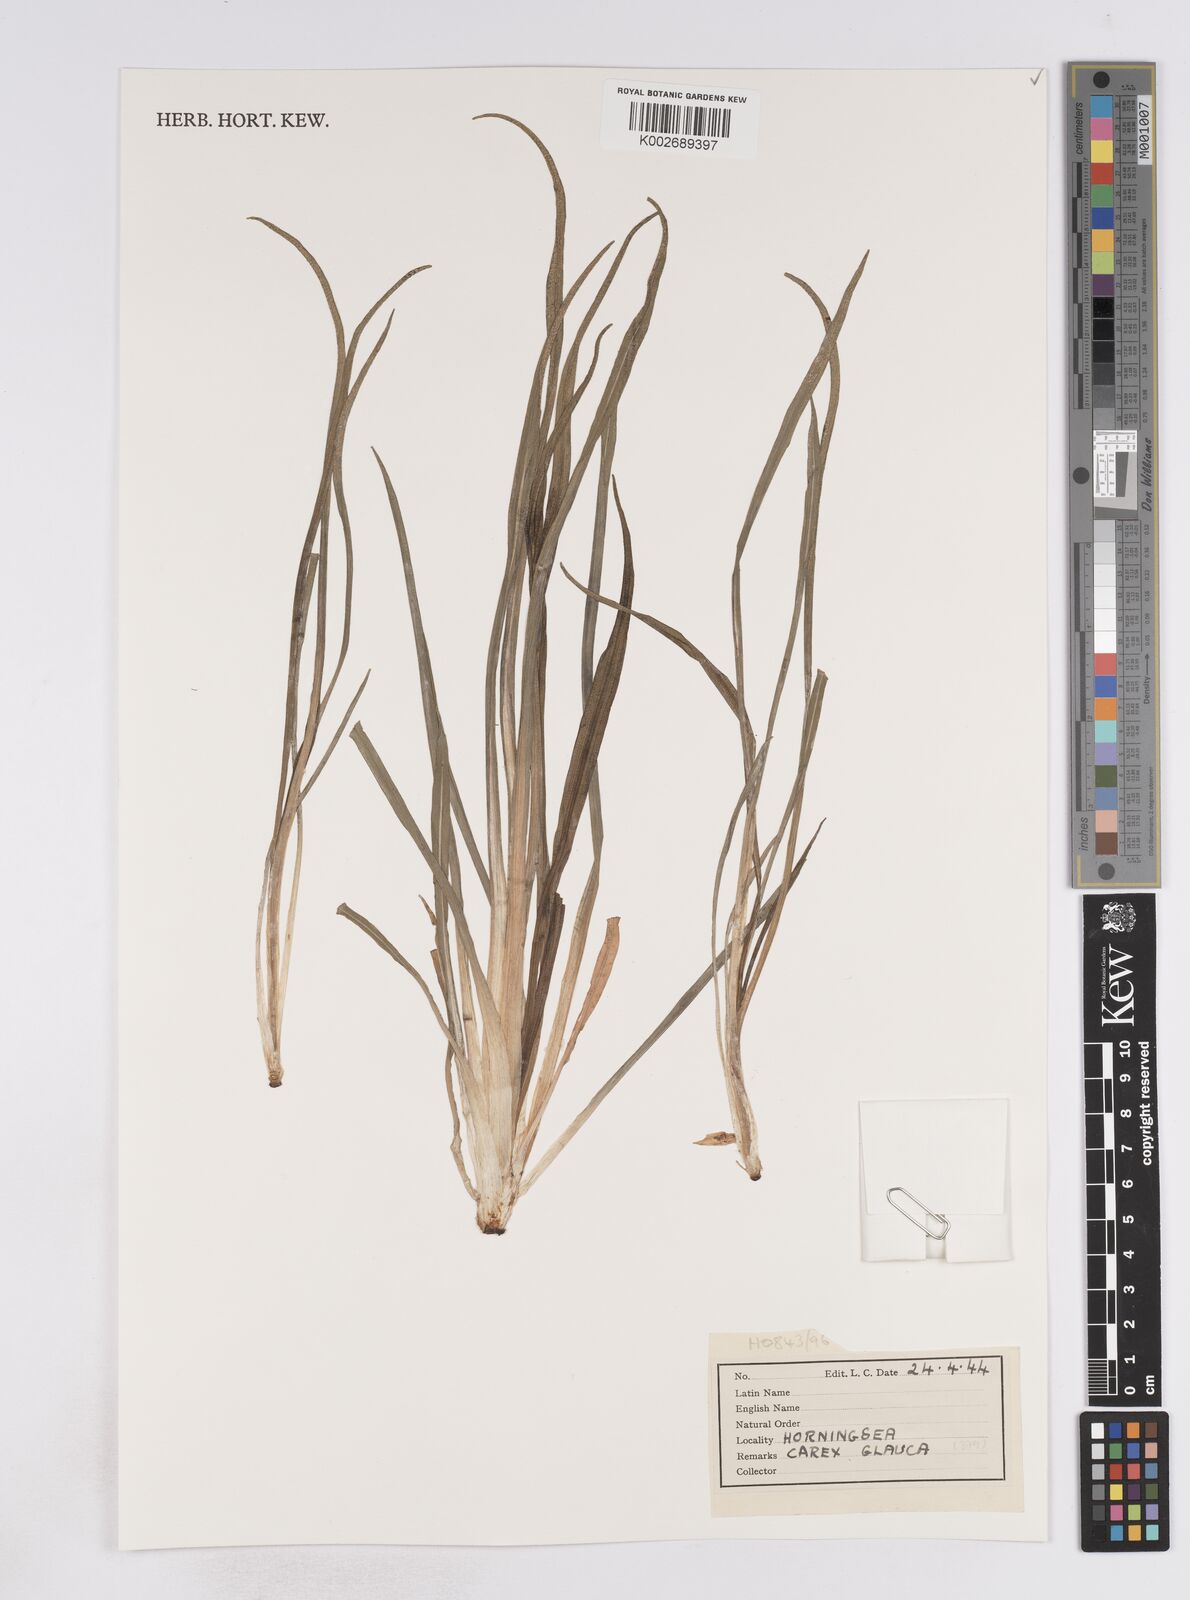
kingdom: Plantae
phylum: Tracheophyta
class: Liliopsida
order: Poales
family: Cyperaceae
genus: Carex
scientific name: Carex flacca
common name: Glaucous sedge
